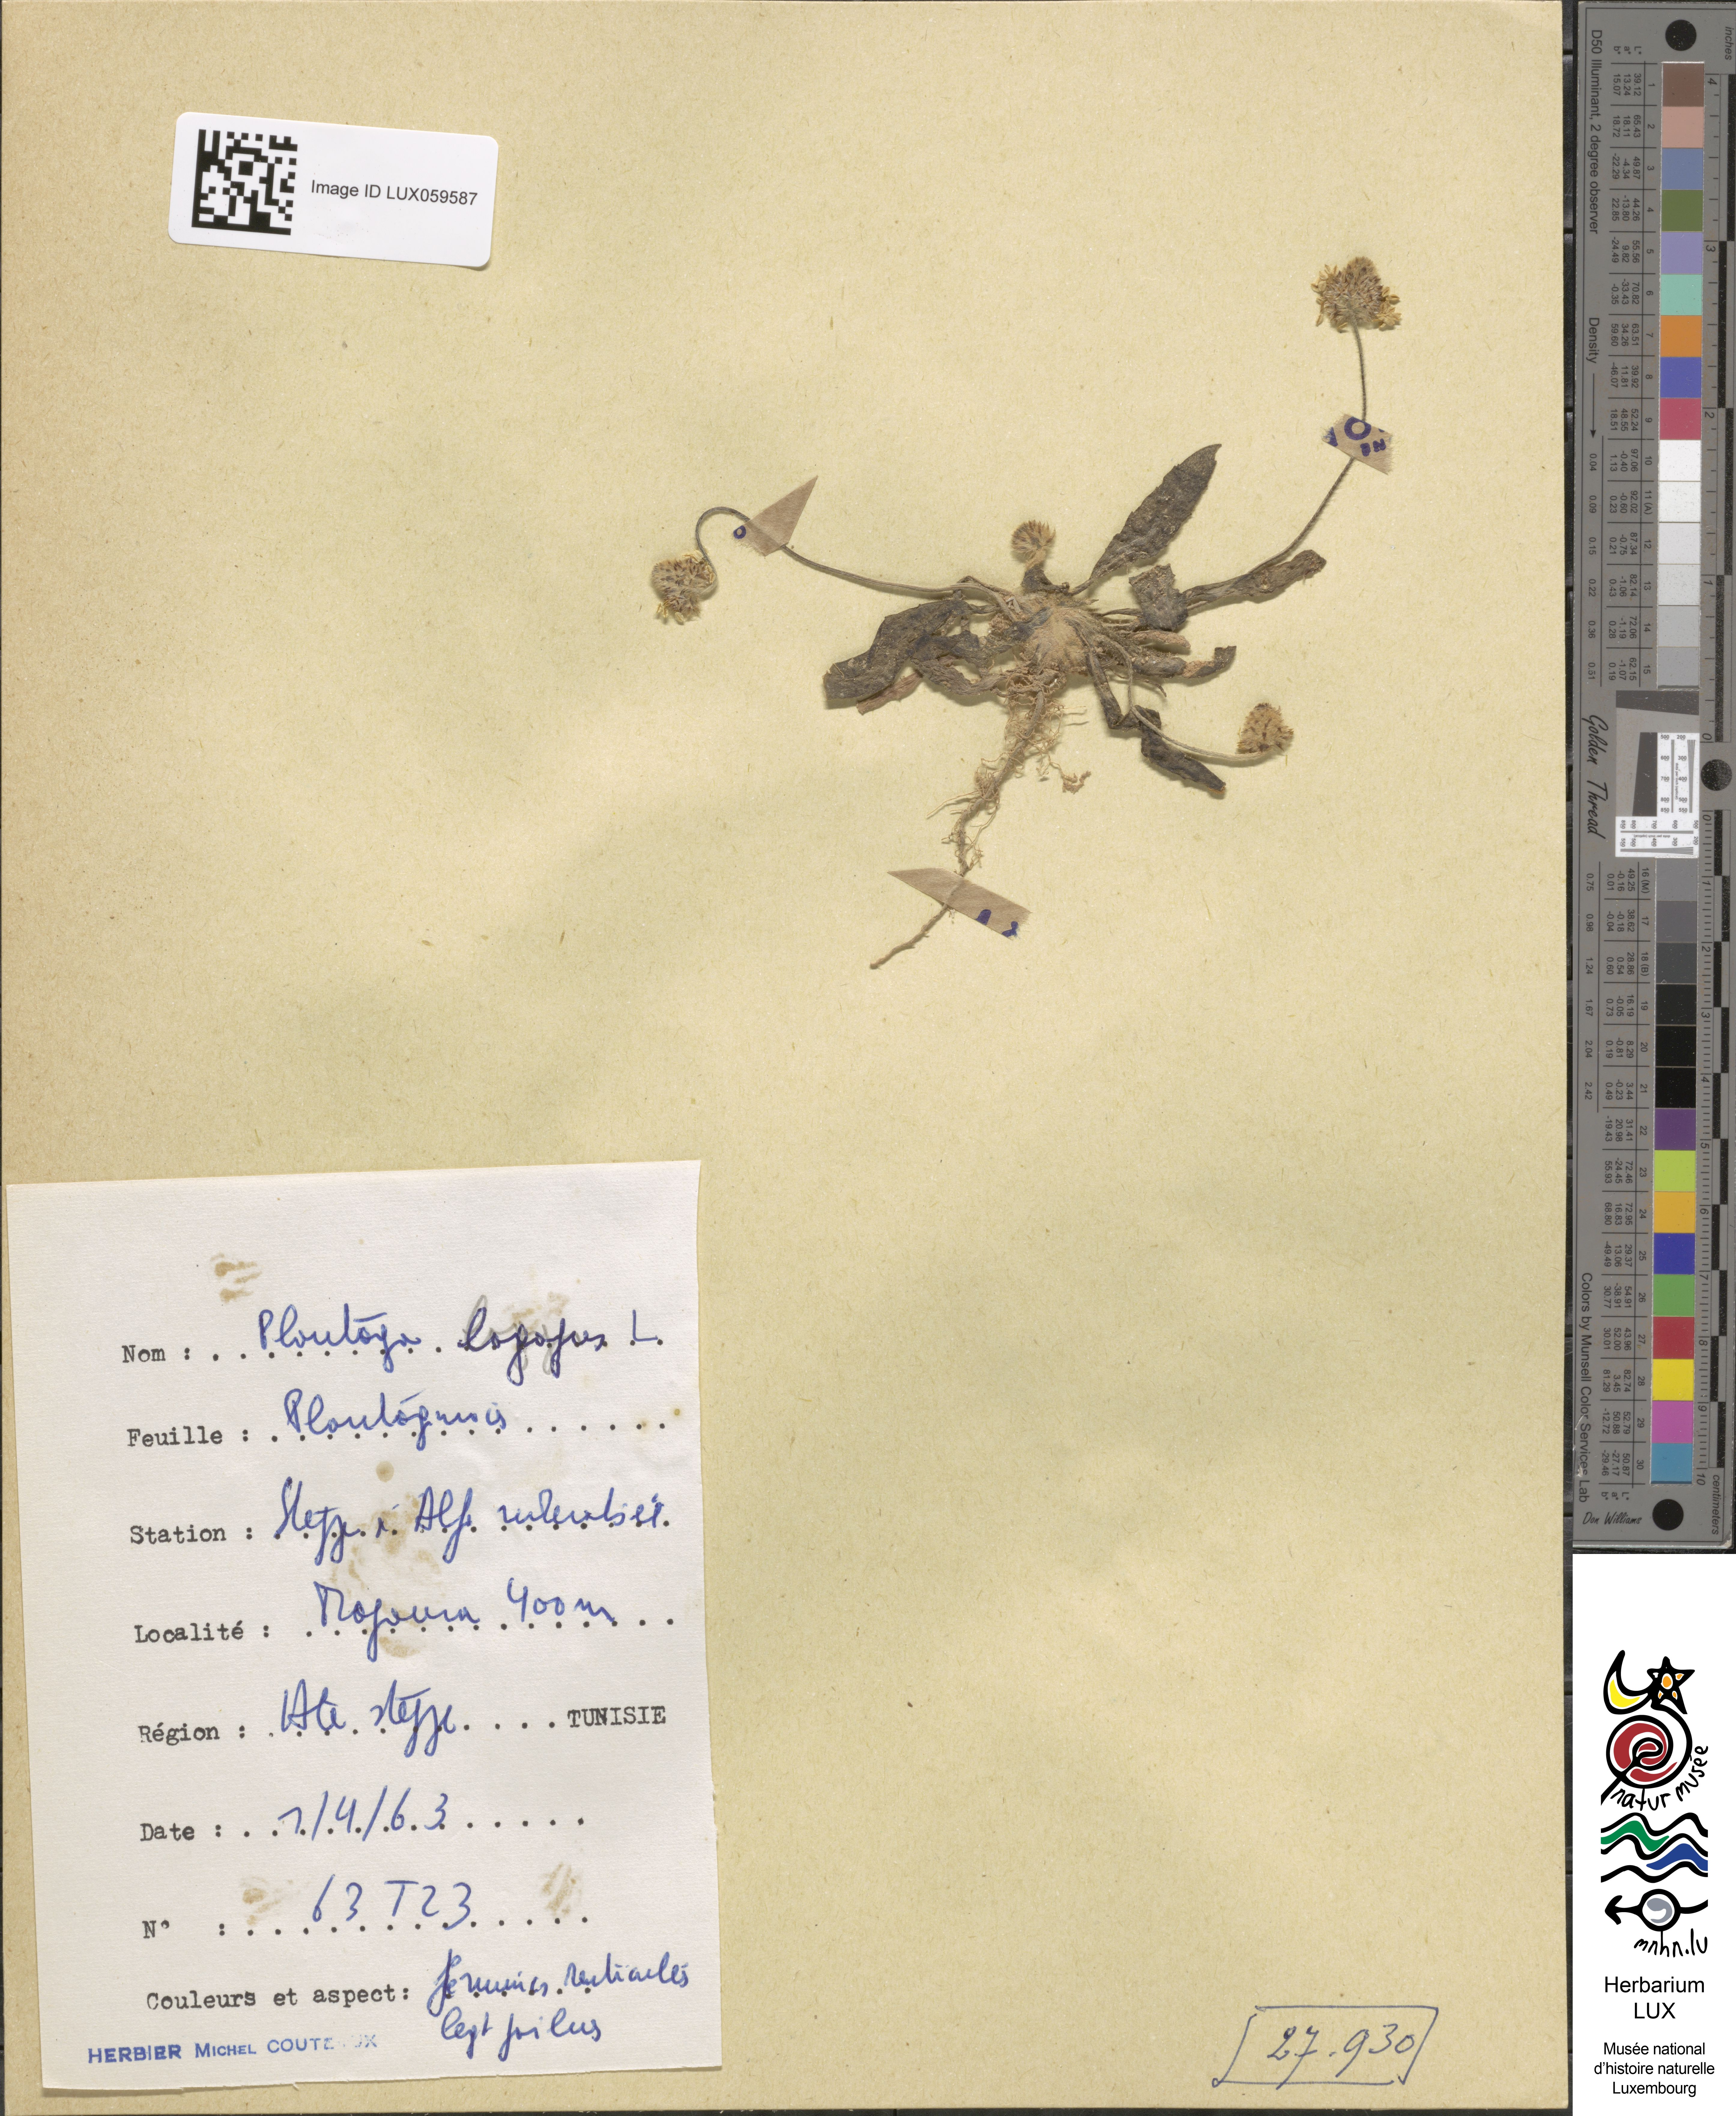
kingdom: Plantae
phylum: Tracheophyta
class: Magnoliopsida
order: Lamiales
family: Plantaginaceae
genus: Plantago
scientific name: Plantago lagopus
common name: Hare-foot plantain
